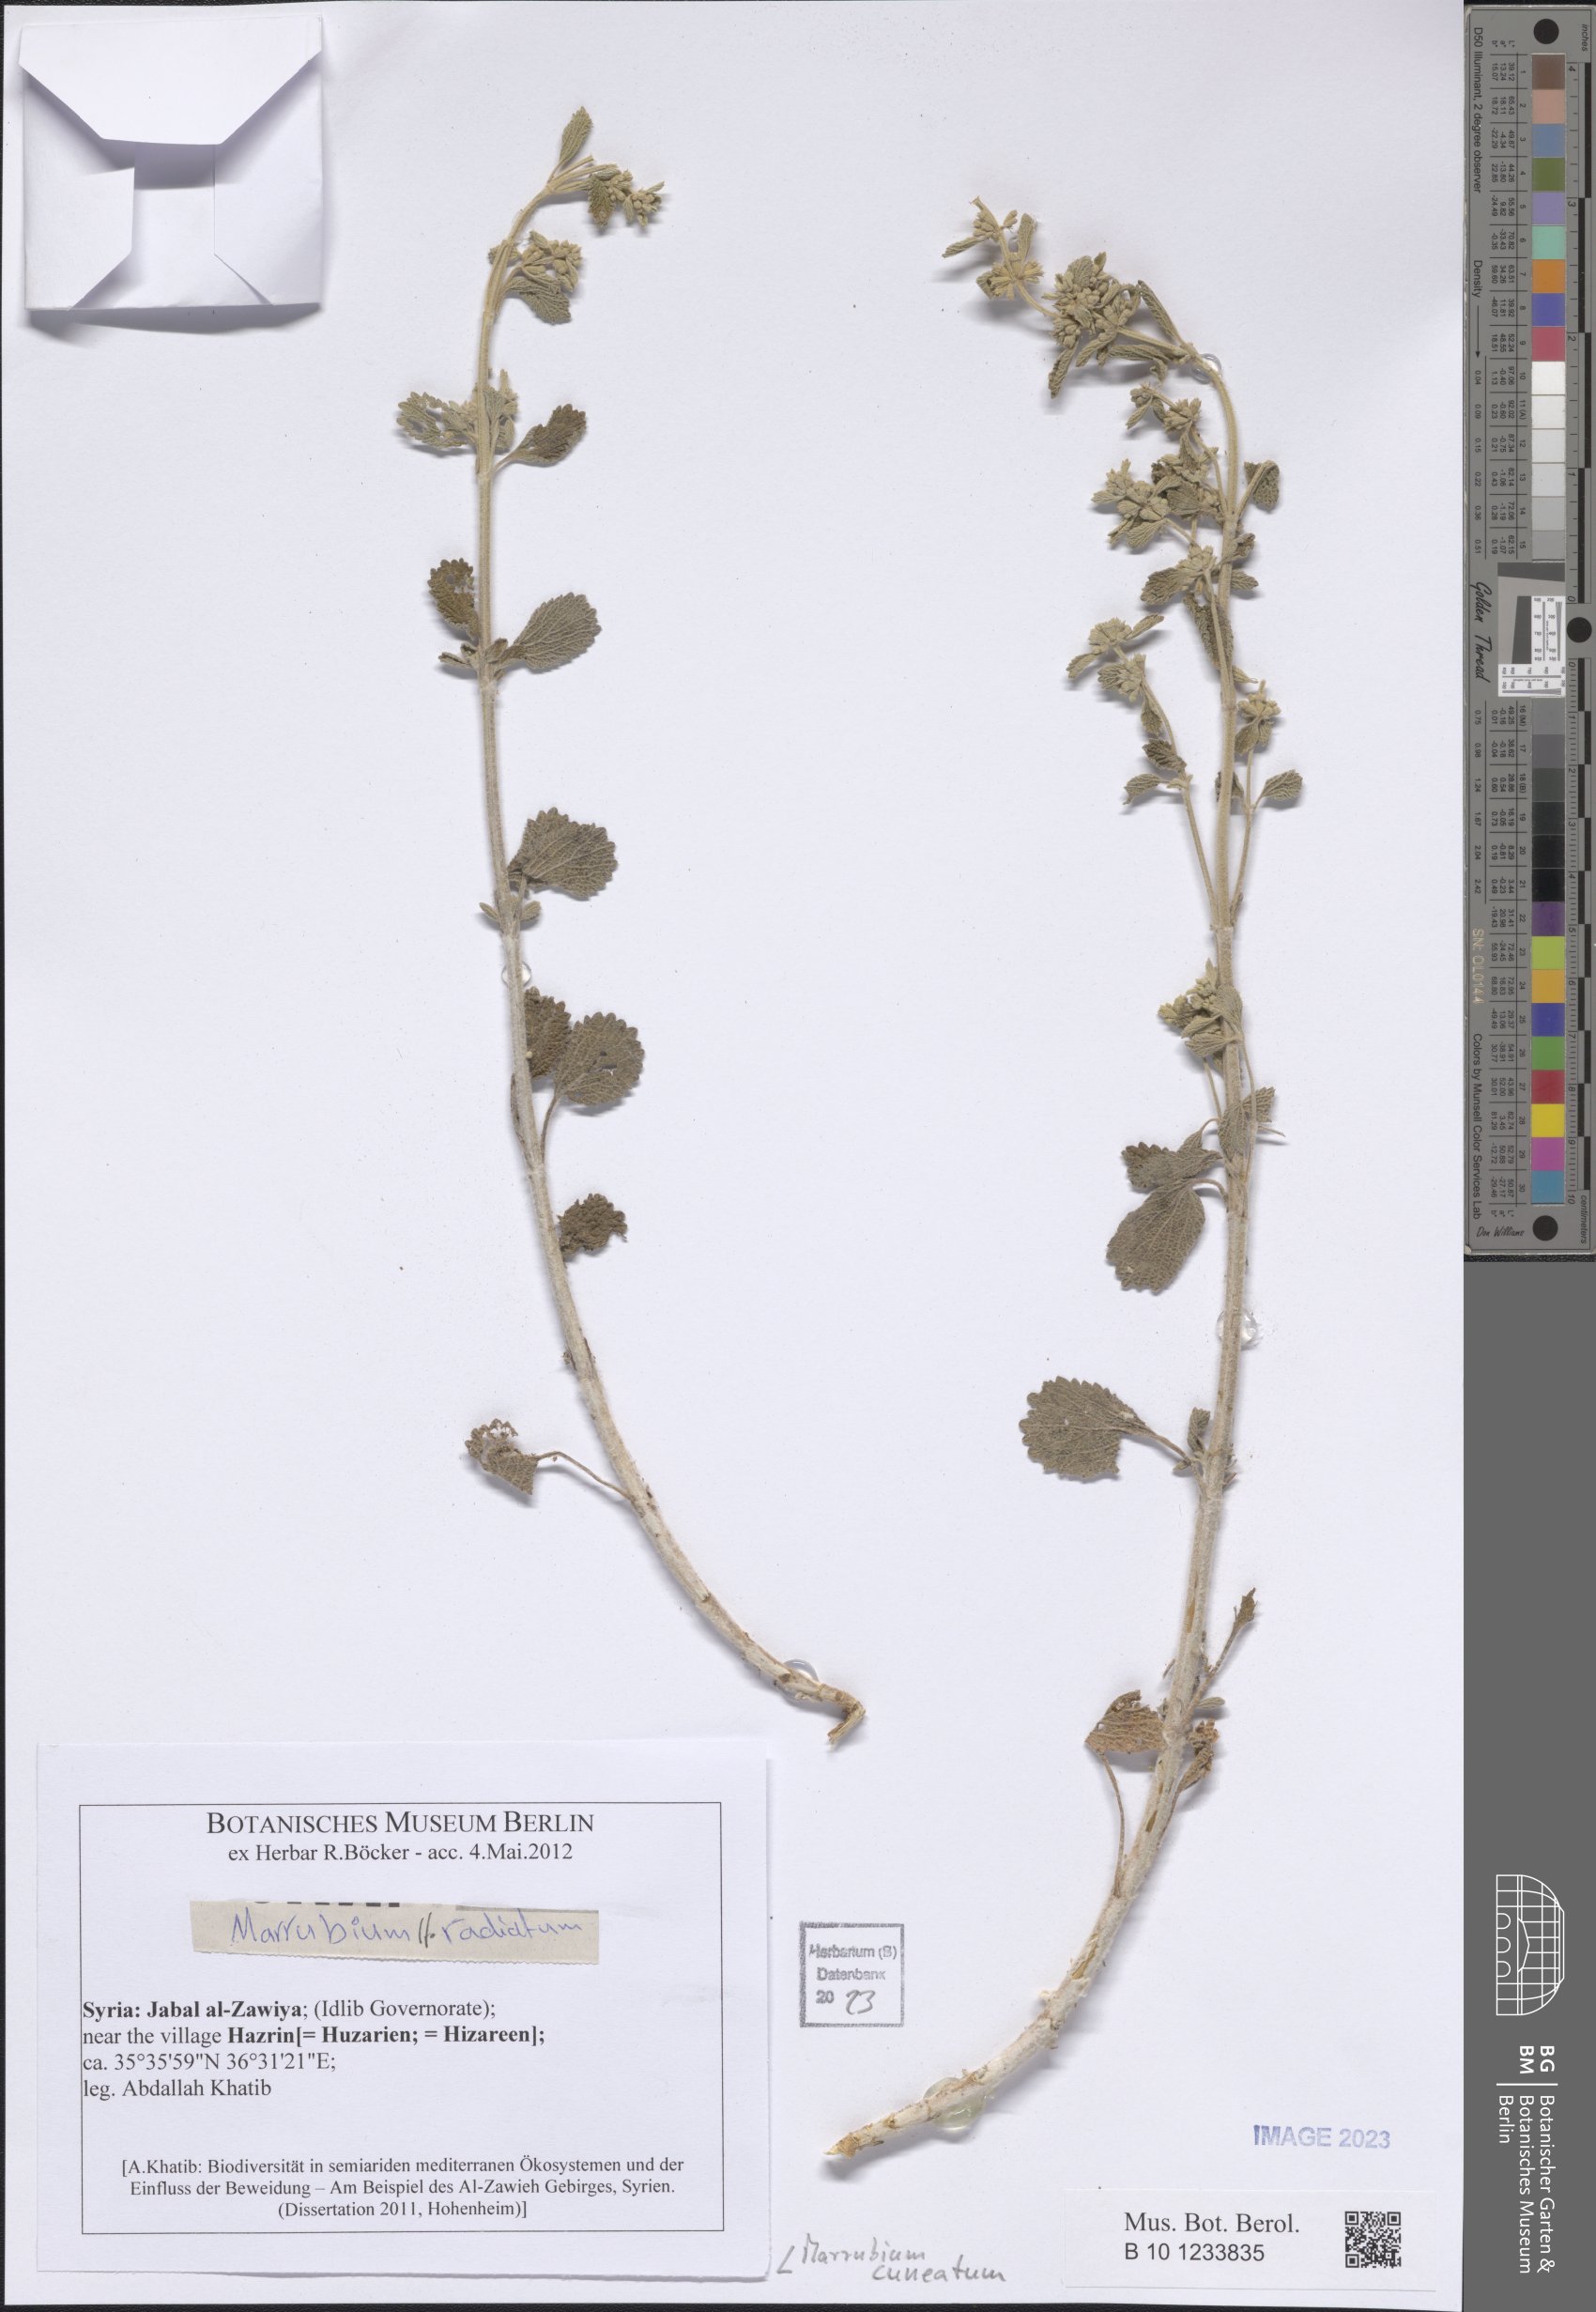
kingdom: Plantae
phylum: Tracheophyta
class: Magnoliopsida
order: Lamiales
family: Lamiaceae
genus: Marrubium
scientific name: Marrubium cuneatum
